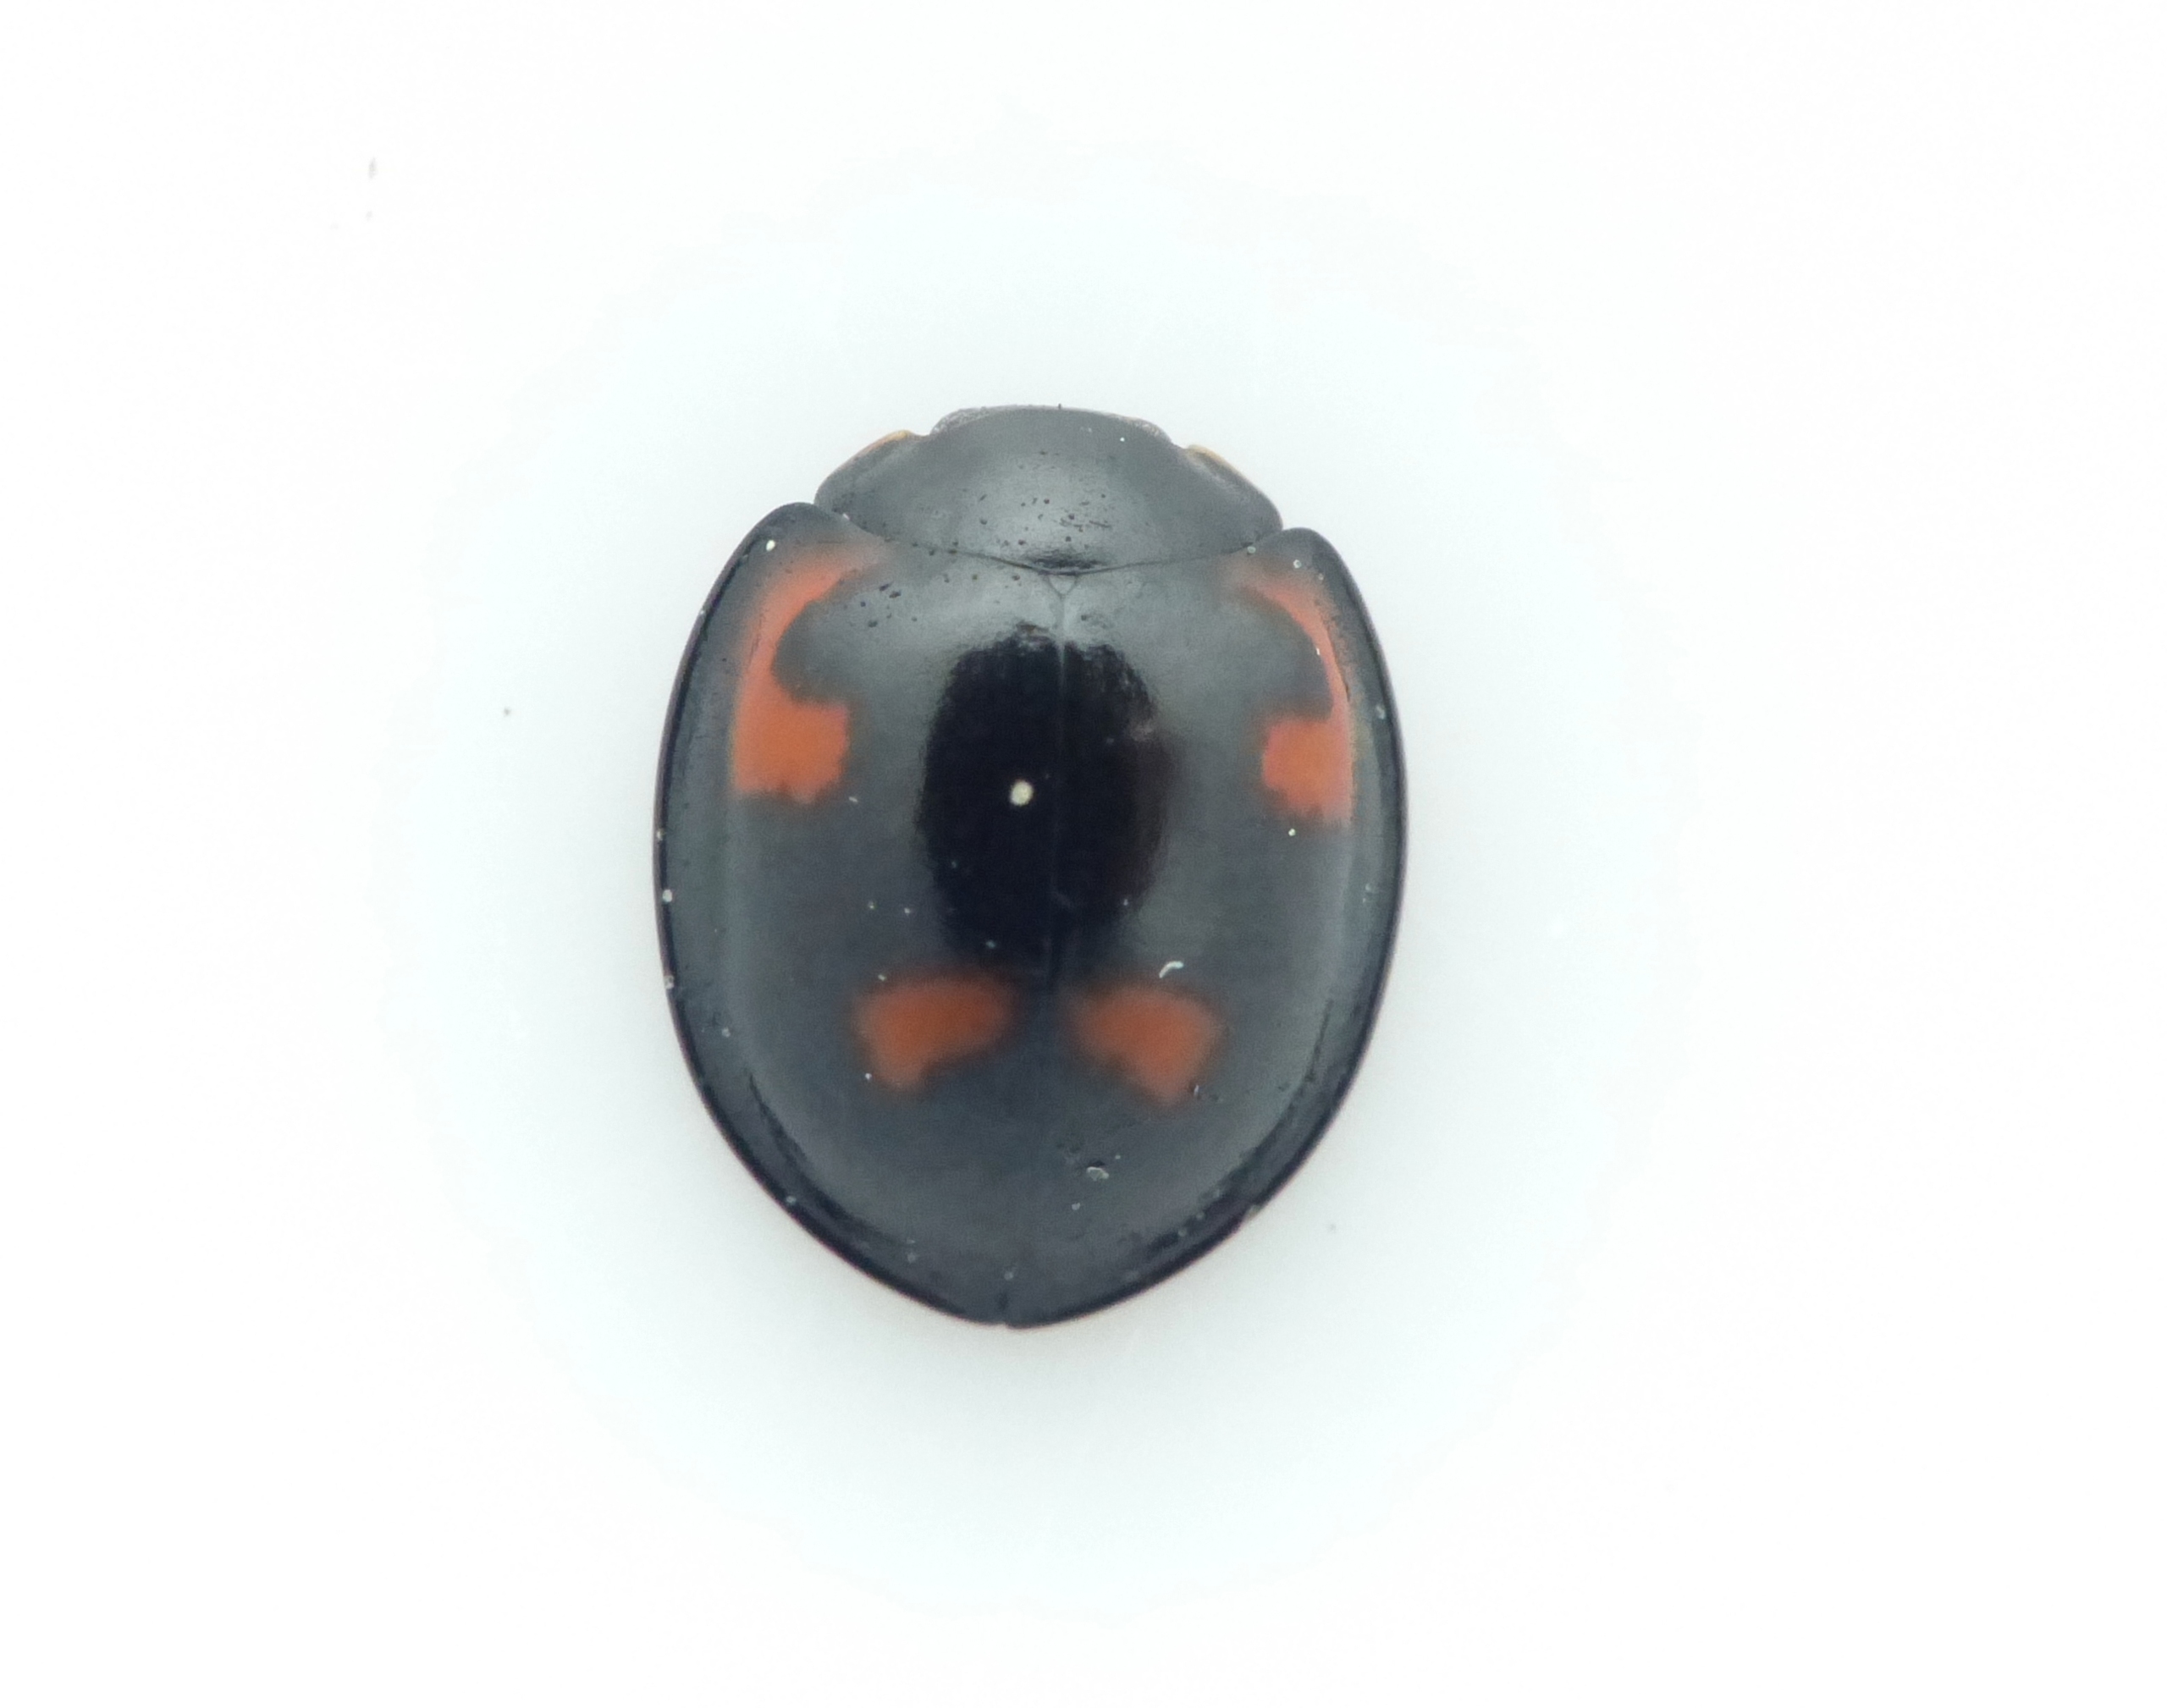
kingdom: Animalia
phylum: Arthropoda
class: Insecta
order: Coleoptera
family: Coccinellidae
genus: Brumus
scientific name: Brumus quadripustulatus
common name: Fireplettet mariehøne
